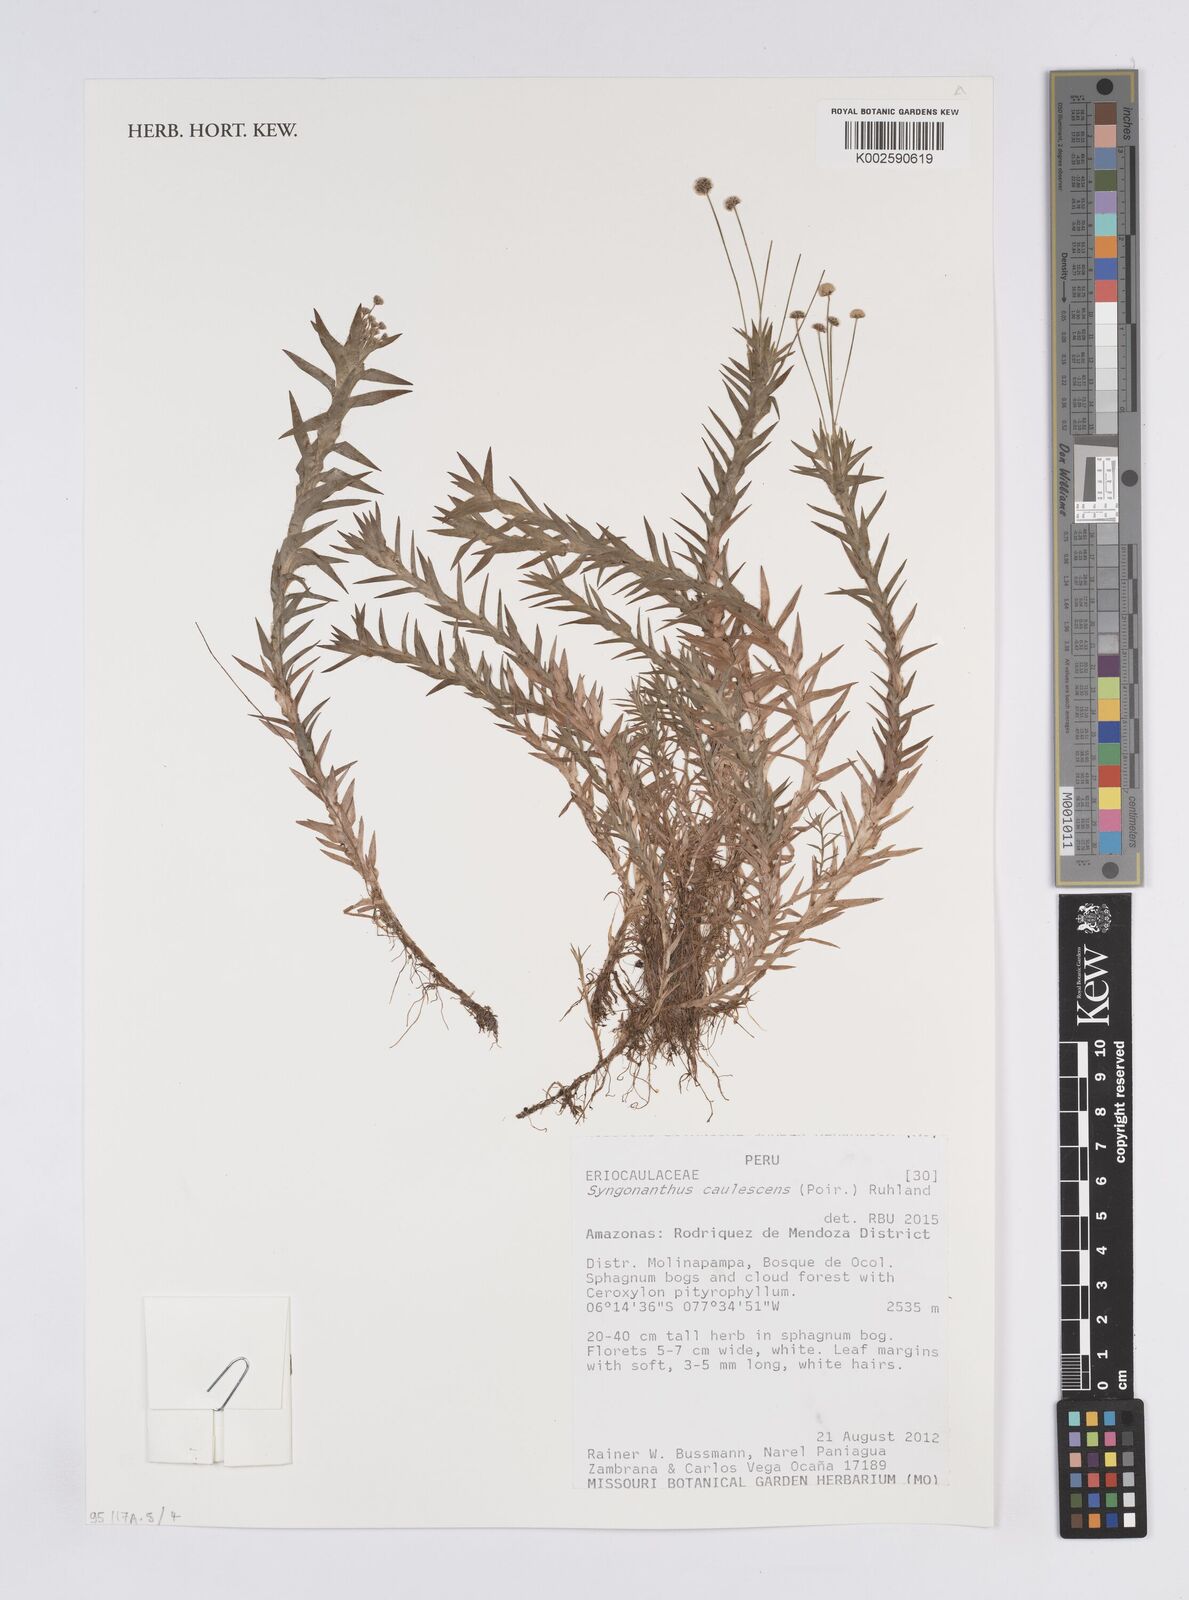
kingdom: Plantae
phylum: Tracheophyta
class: Liliopsida
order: Poales
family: Eriocaulaceae
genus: Syngonanthus
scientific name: Syngonanthus caulescens
